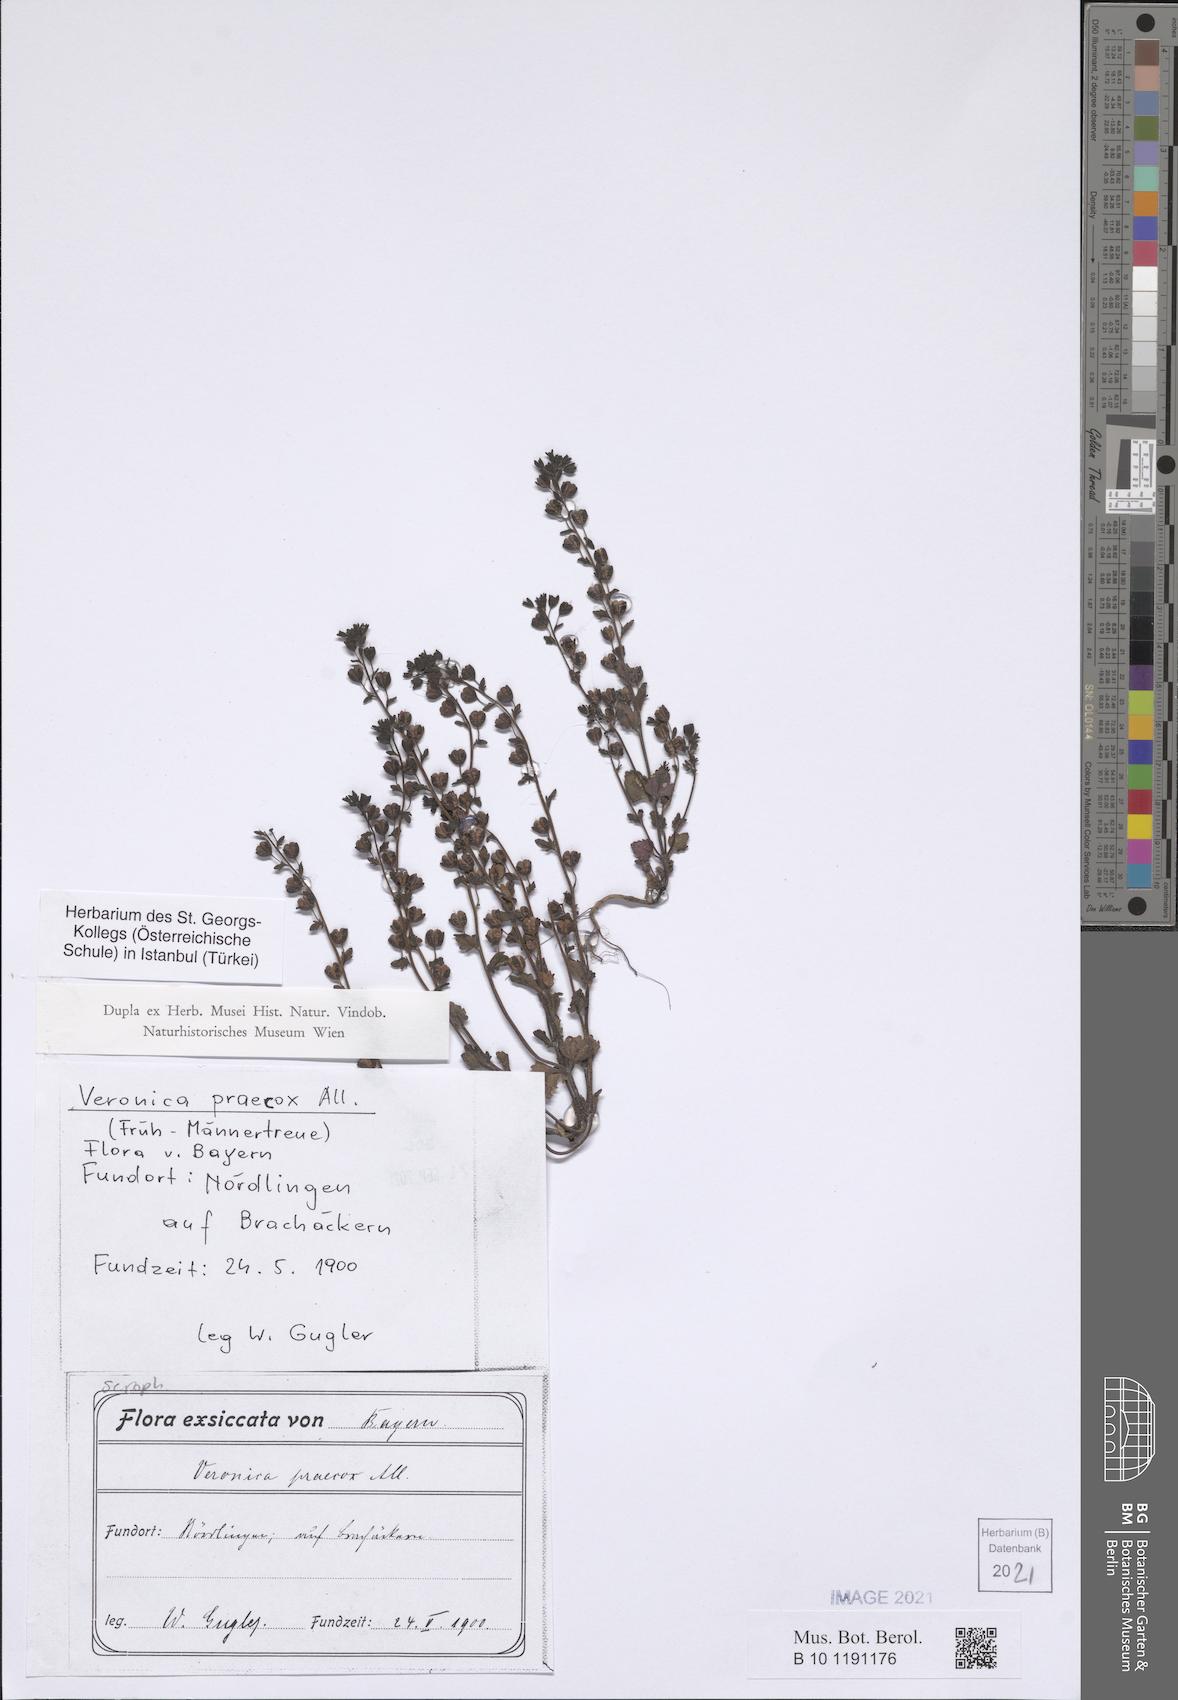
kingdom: Plantae
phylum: Tracheophyta
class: Magnoliopsida
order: Lamiales
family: Plantaginaceae
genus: Veronica
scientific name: Veronica praecox
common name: Breckland speedwell
